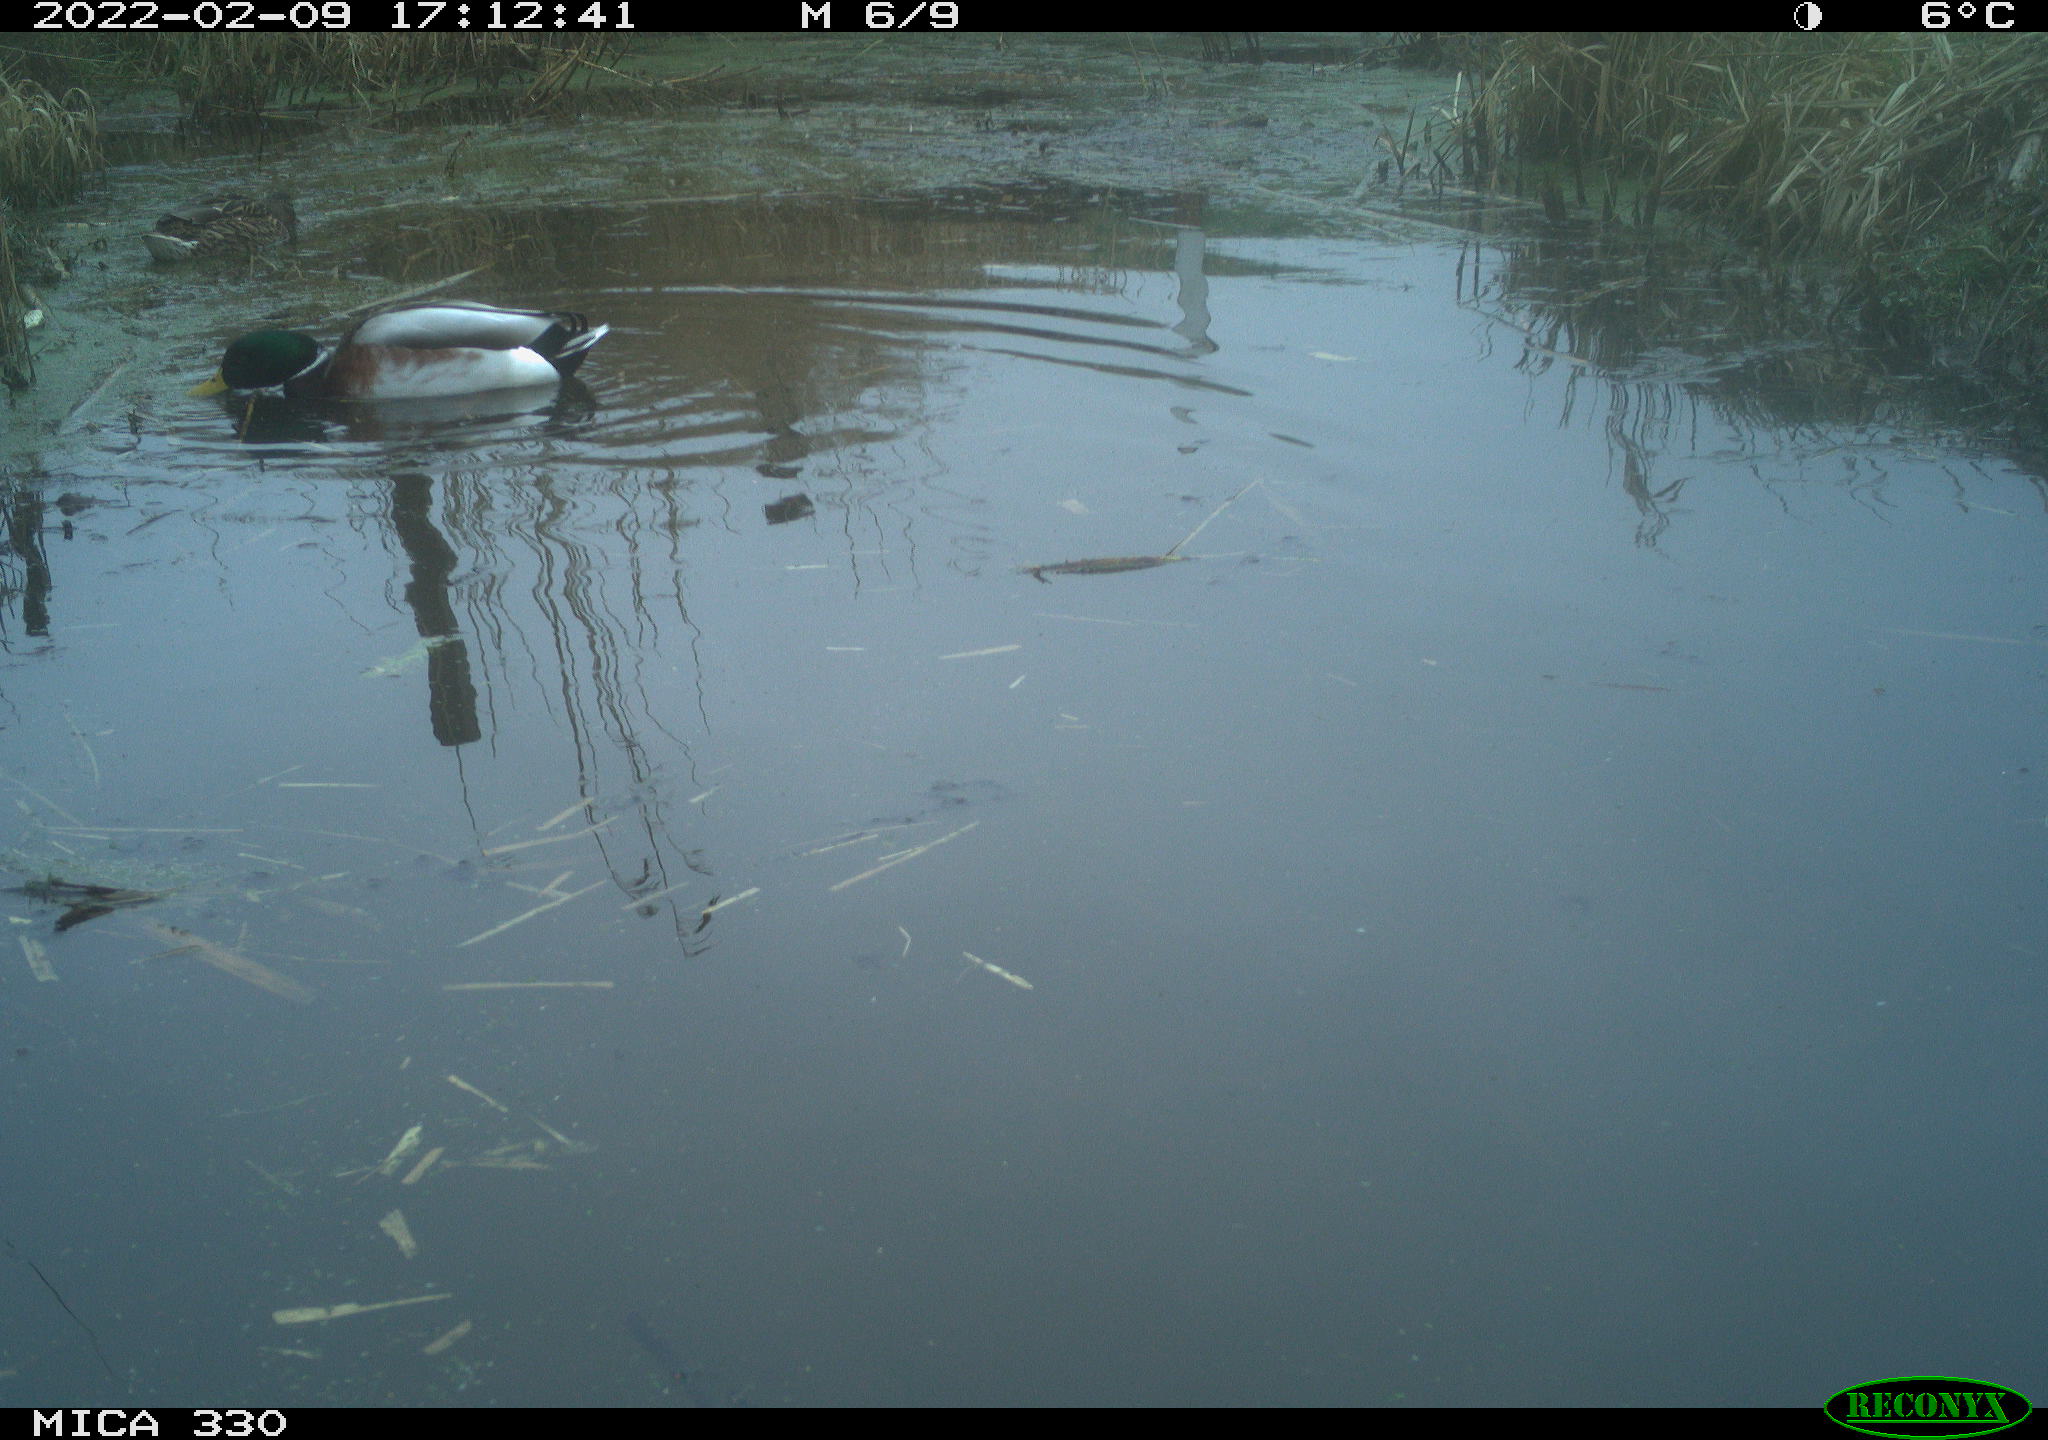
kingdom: Animalia
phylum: Chordata
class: Aves
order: Anseriformes
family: Anatidae
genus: Anas
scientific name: Anas platyrhynchos
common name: Mallard
